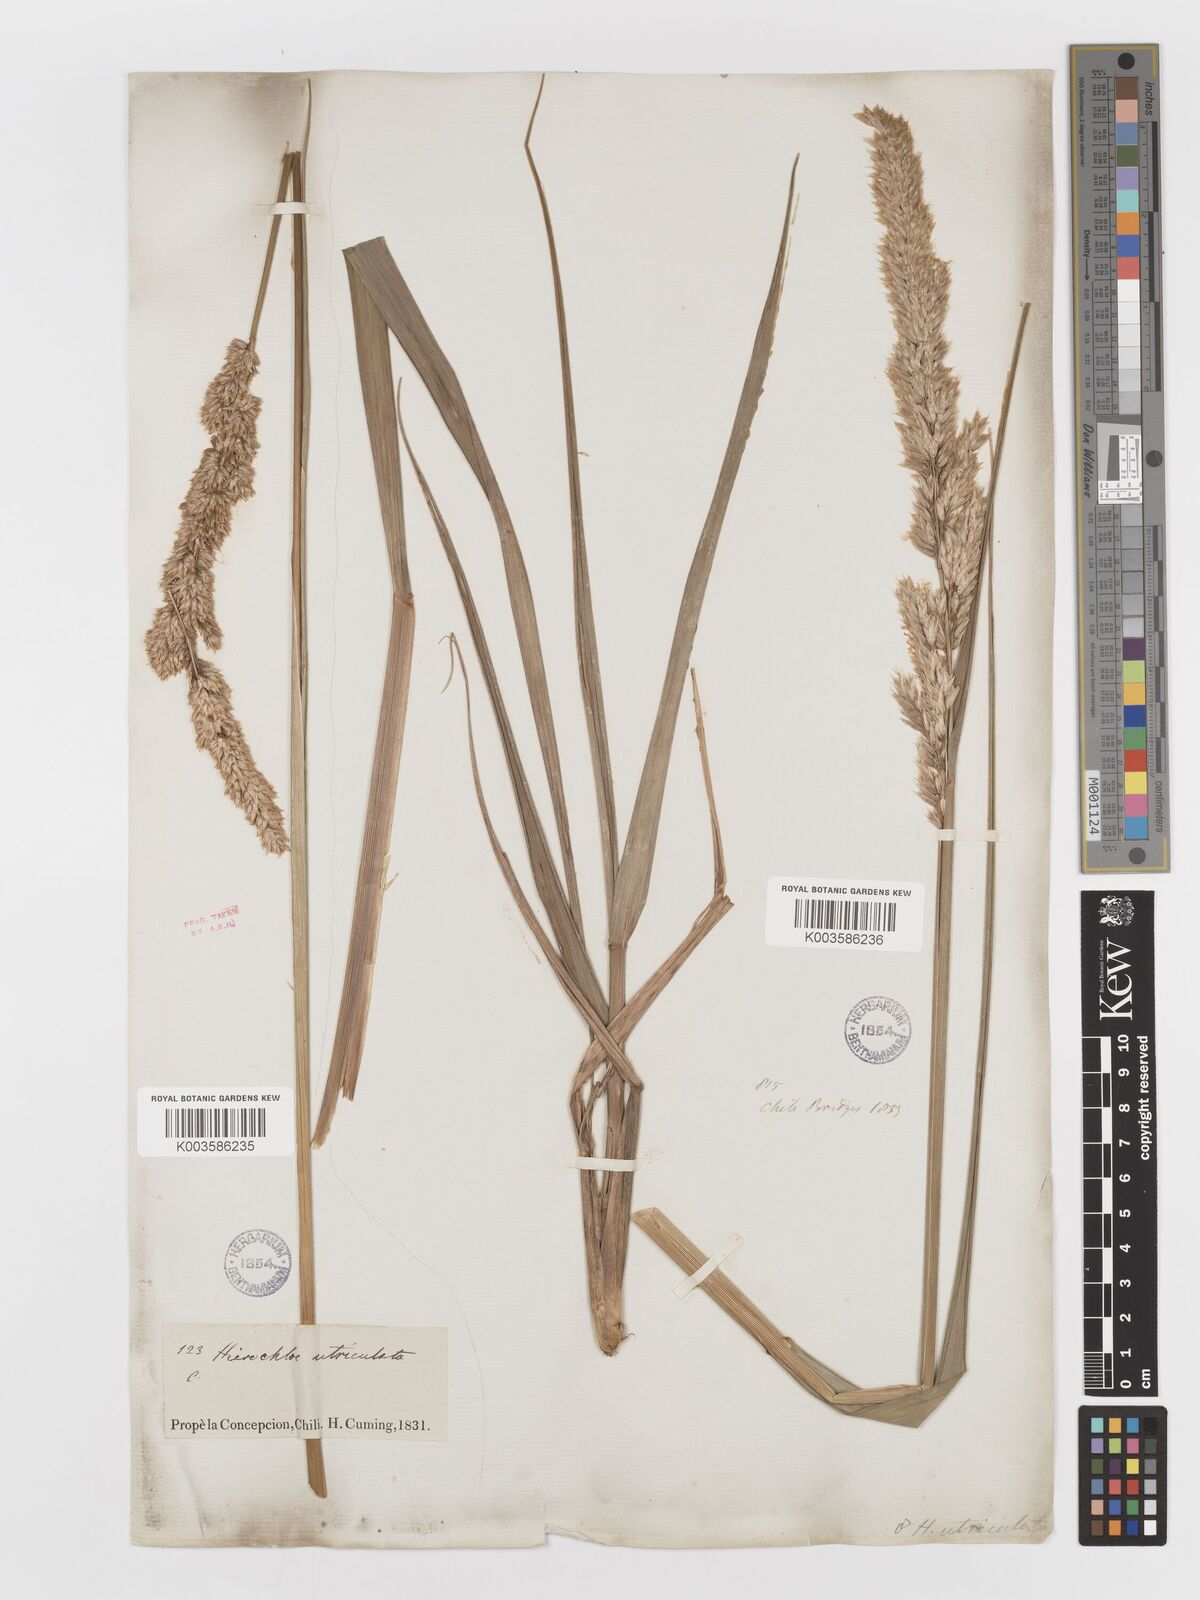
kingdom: Plantae
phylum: Tracheophyta
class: Liliopsida
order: Poales
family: Poaceae
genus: Anthoxanthum
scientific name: Anthoxanthum redolens
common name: Sweet holy grass
